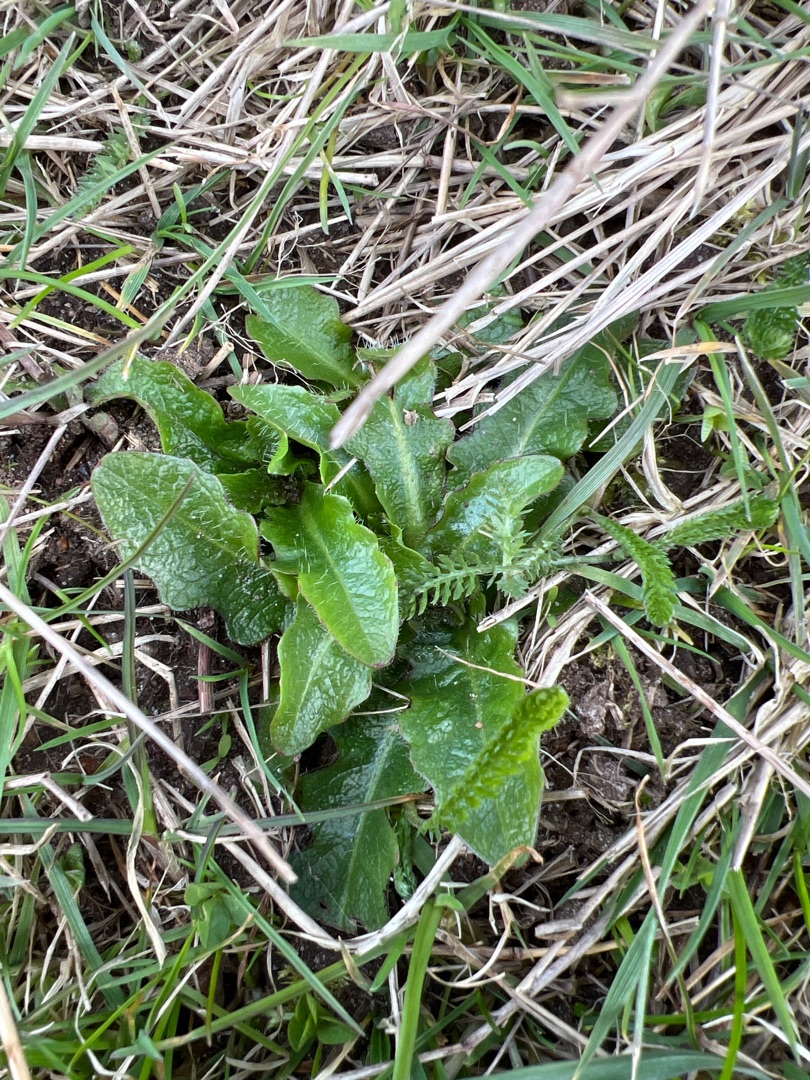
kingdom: Plantae
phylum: Tracheophyta
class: Magnoliopsida
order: Asterales
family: Asteraceae
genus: Hypochaeris
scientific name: Hypochaeris radicata
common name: Almindelig kongepen
